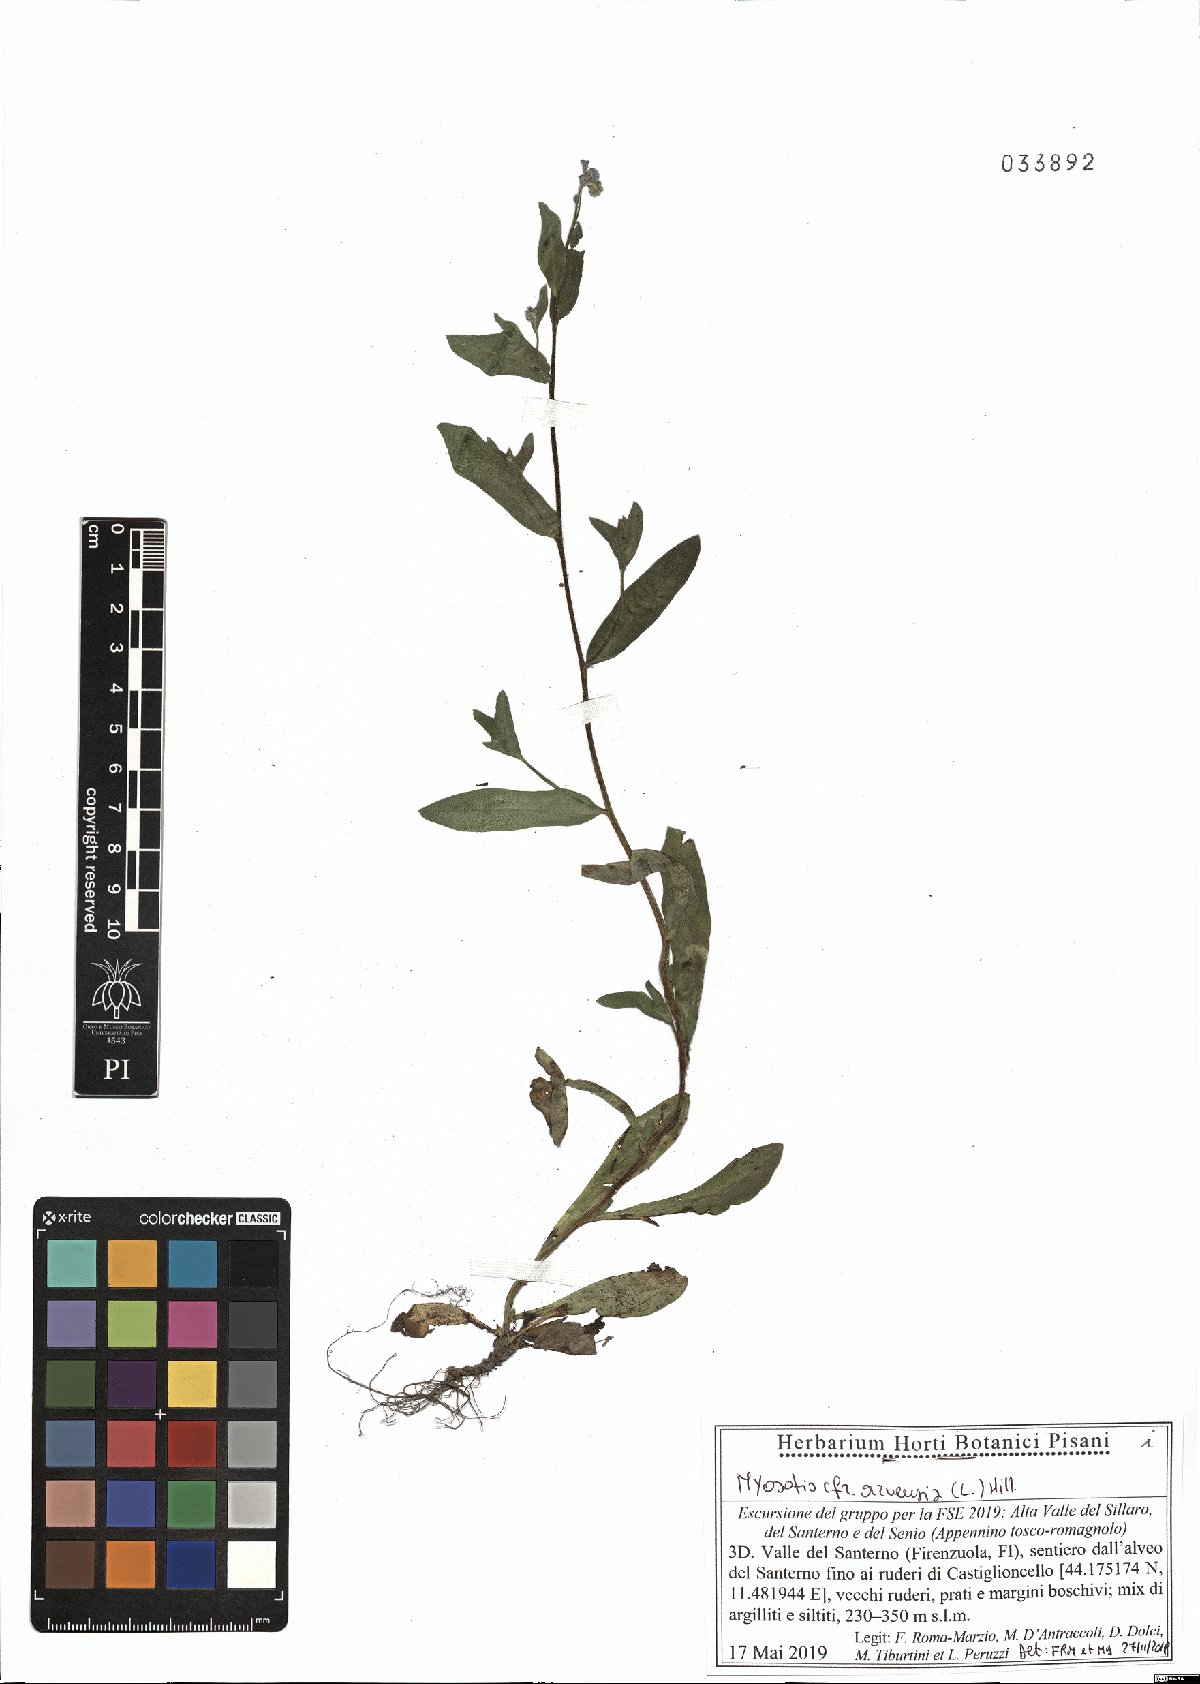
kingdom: Plantae
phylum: Tracheophyta
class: Magnoliopsida
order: Boraginales
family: Boraginaceae
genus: Myosotis
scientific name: Myosotis arvensis
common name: Field forget-me-not
